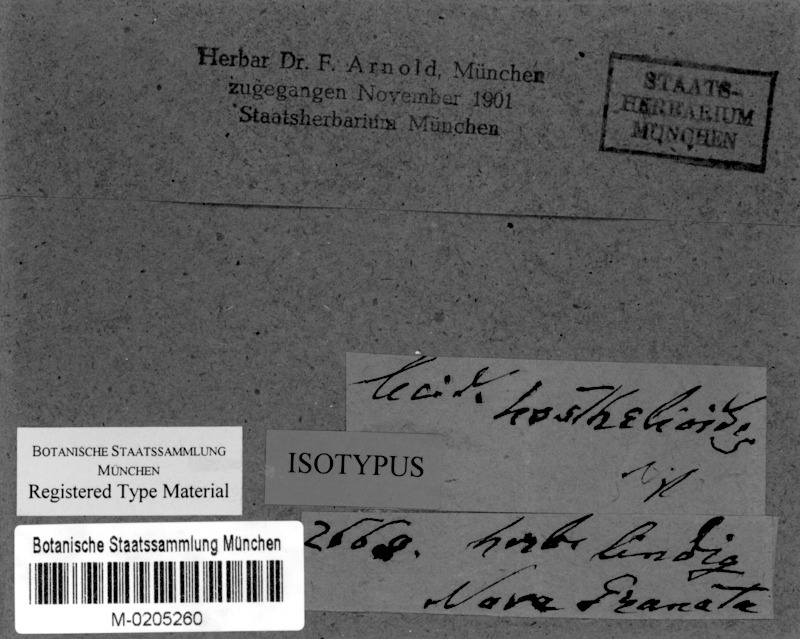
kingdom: Fungi
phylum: Ascomycota
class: Lecanoromycetes
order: Lecanorales
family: Ramalinaceae
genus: Bacidia
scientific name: Bacidia hostheleoides
